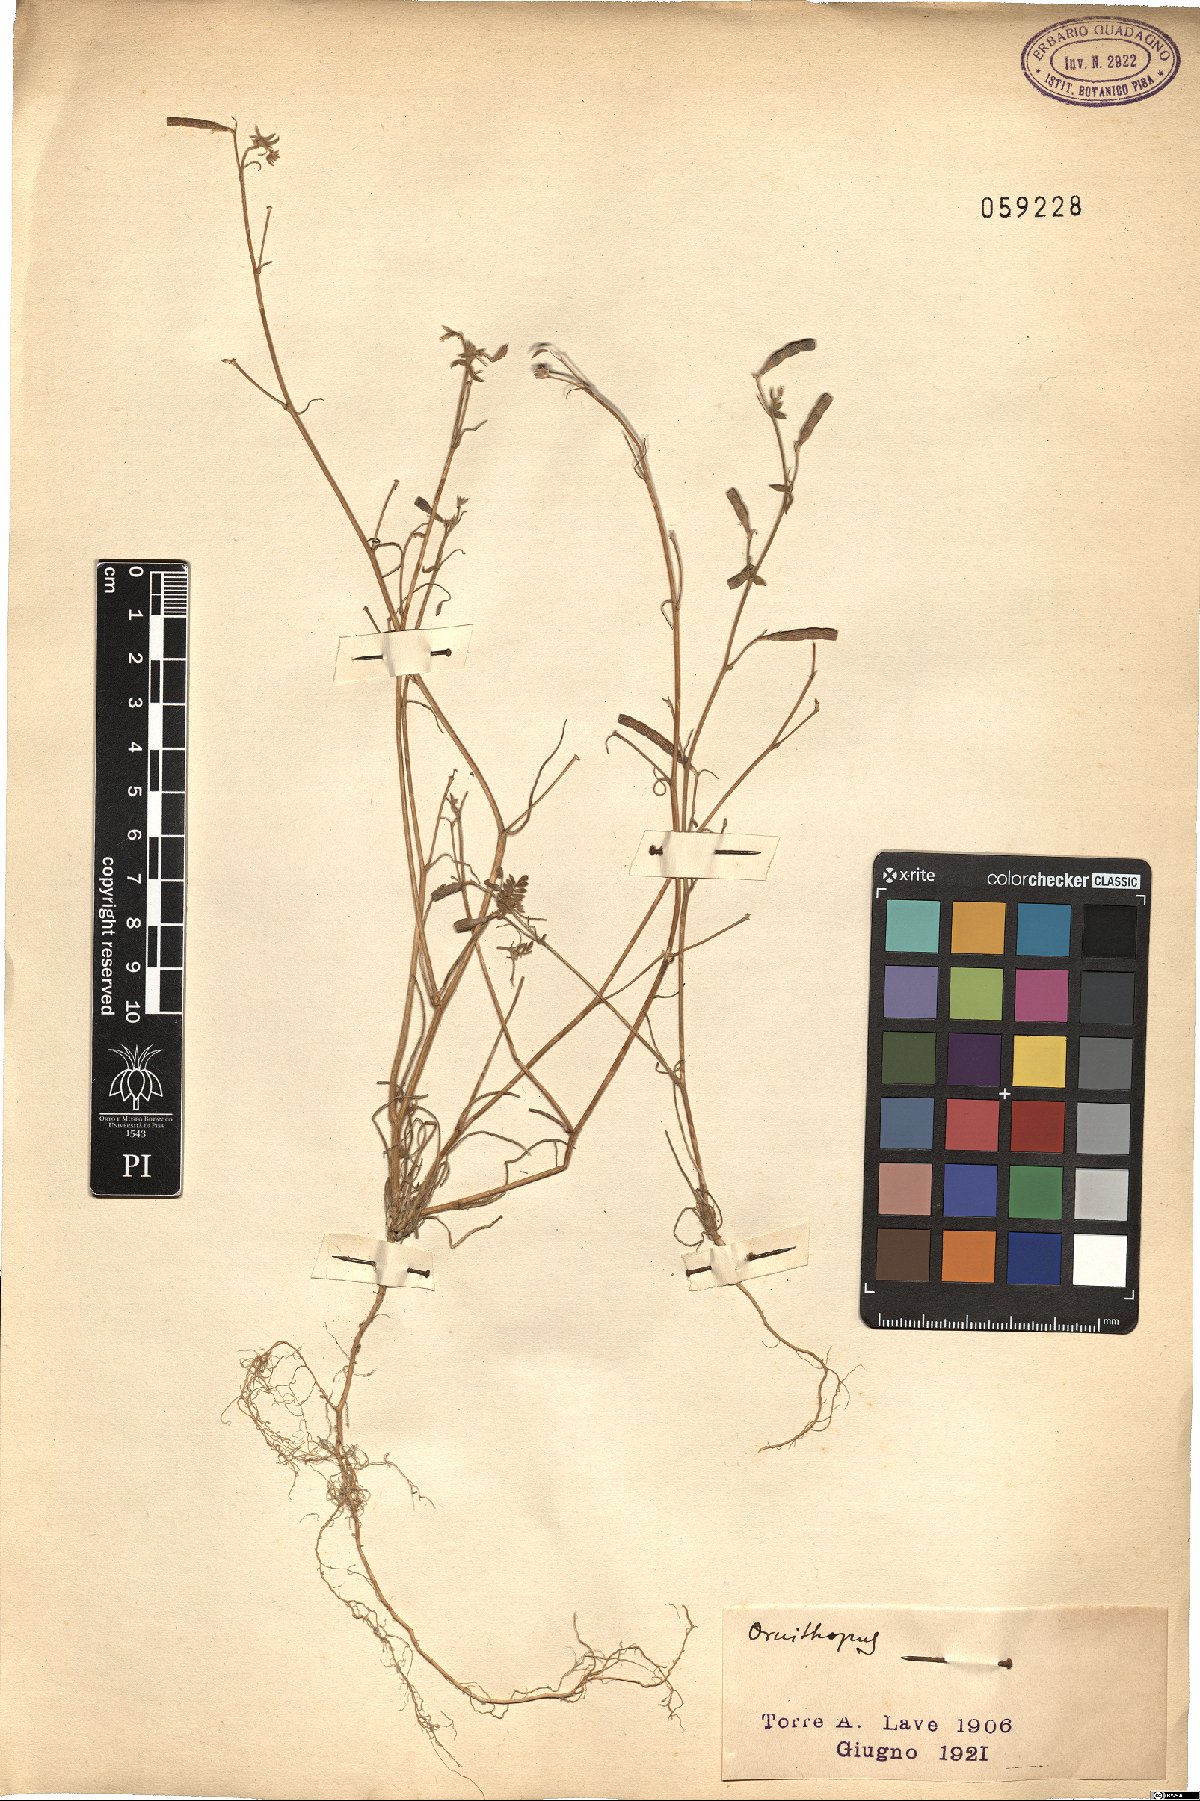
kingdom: Plantae
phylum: Tracheophyta
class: Magnoliopsida
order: Fabales
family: Fabaceae
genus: Ornithopus
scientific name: Ornithopus
